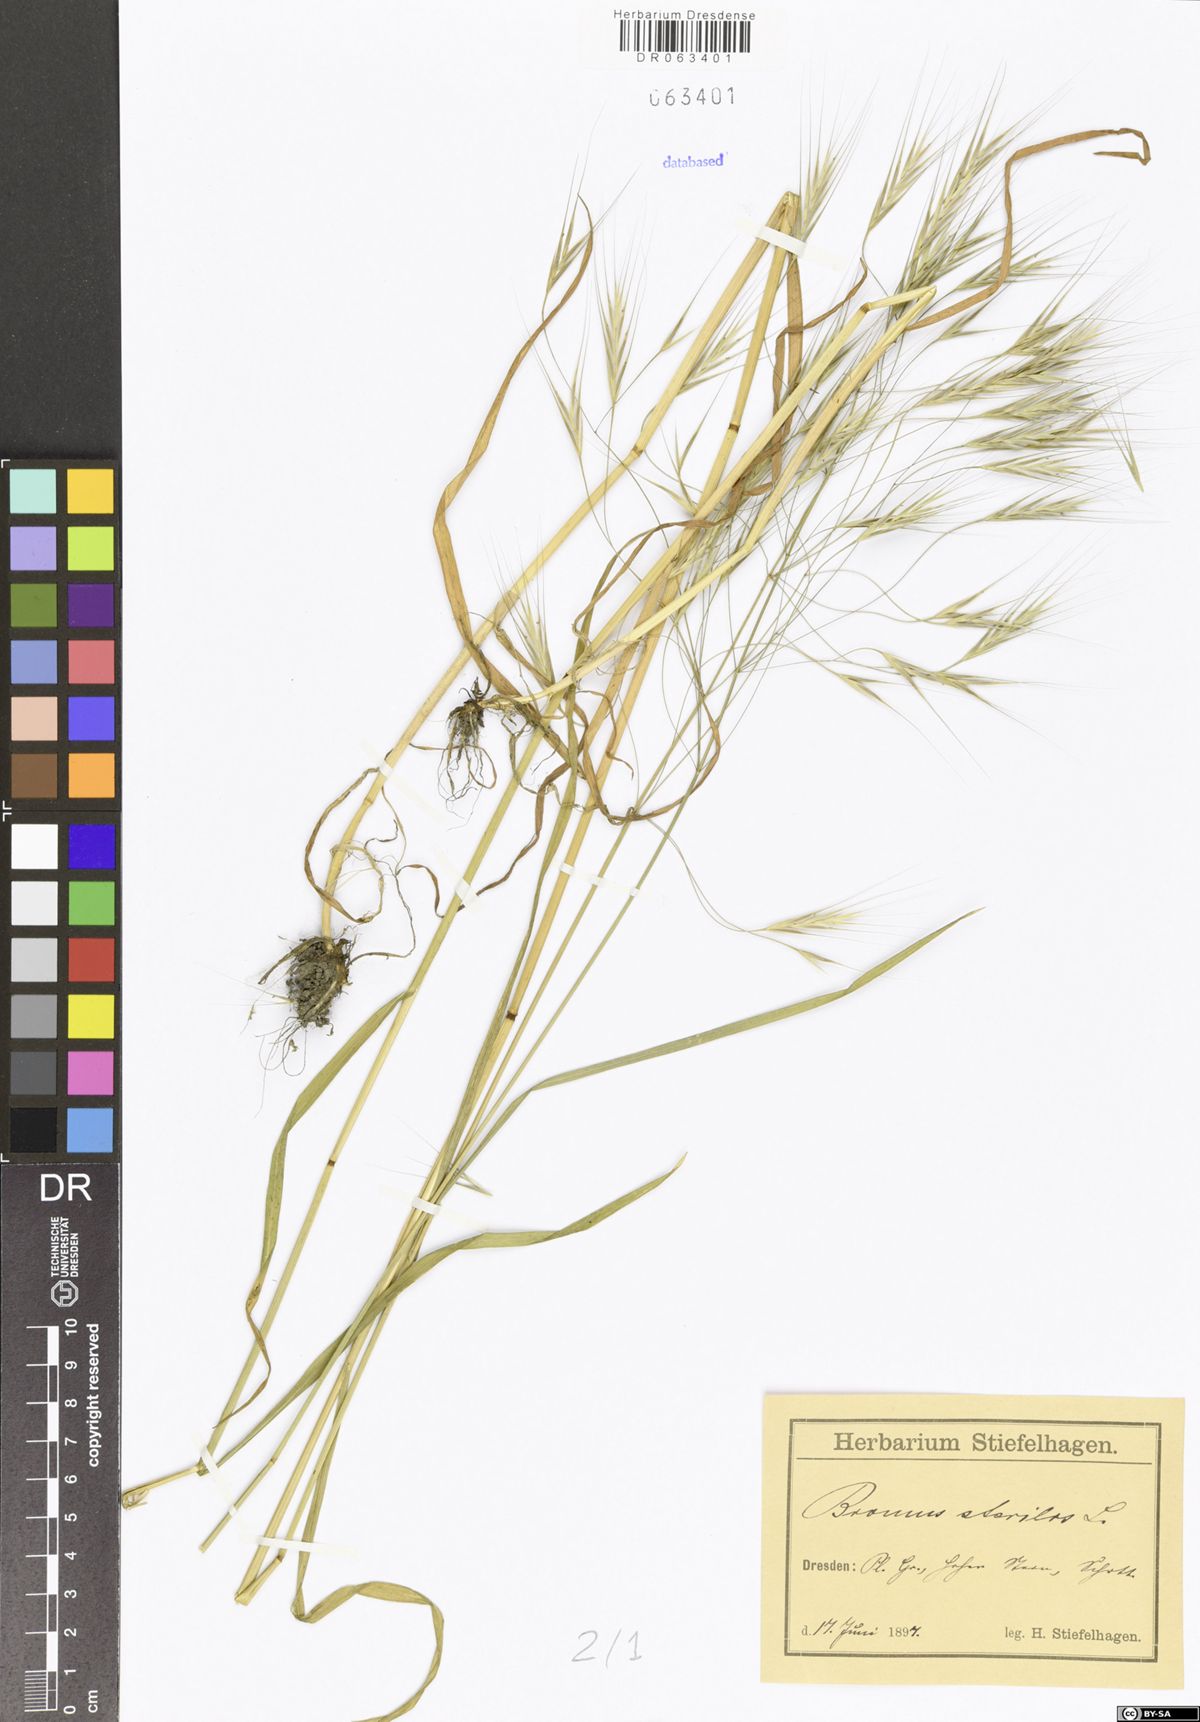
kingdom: Plantae
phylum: Tracheophyta
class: Liliopsida
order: Poales
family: Poaceae
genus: Bromus
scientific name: Bromus sterilis
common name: Poverty brome
